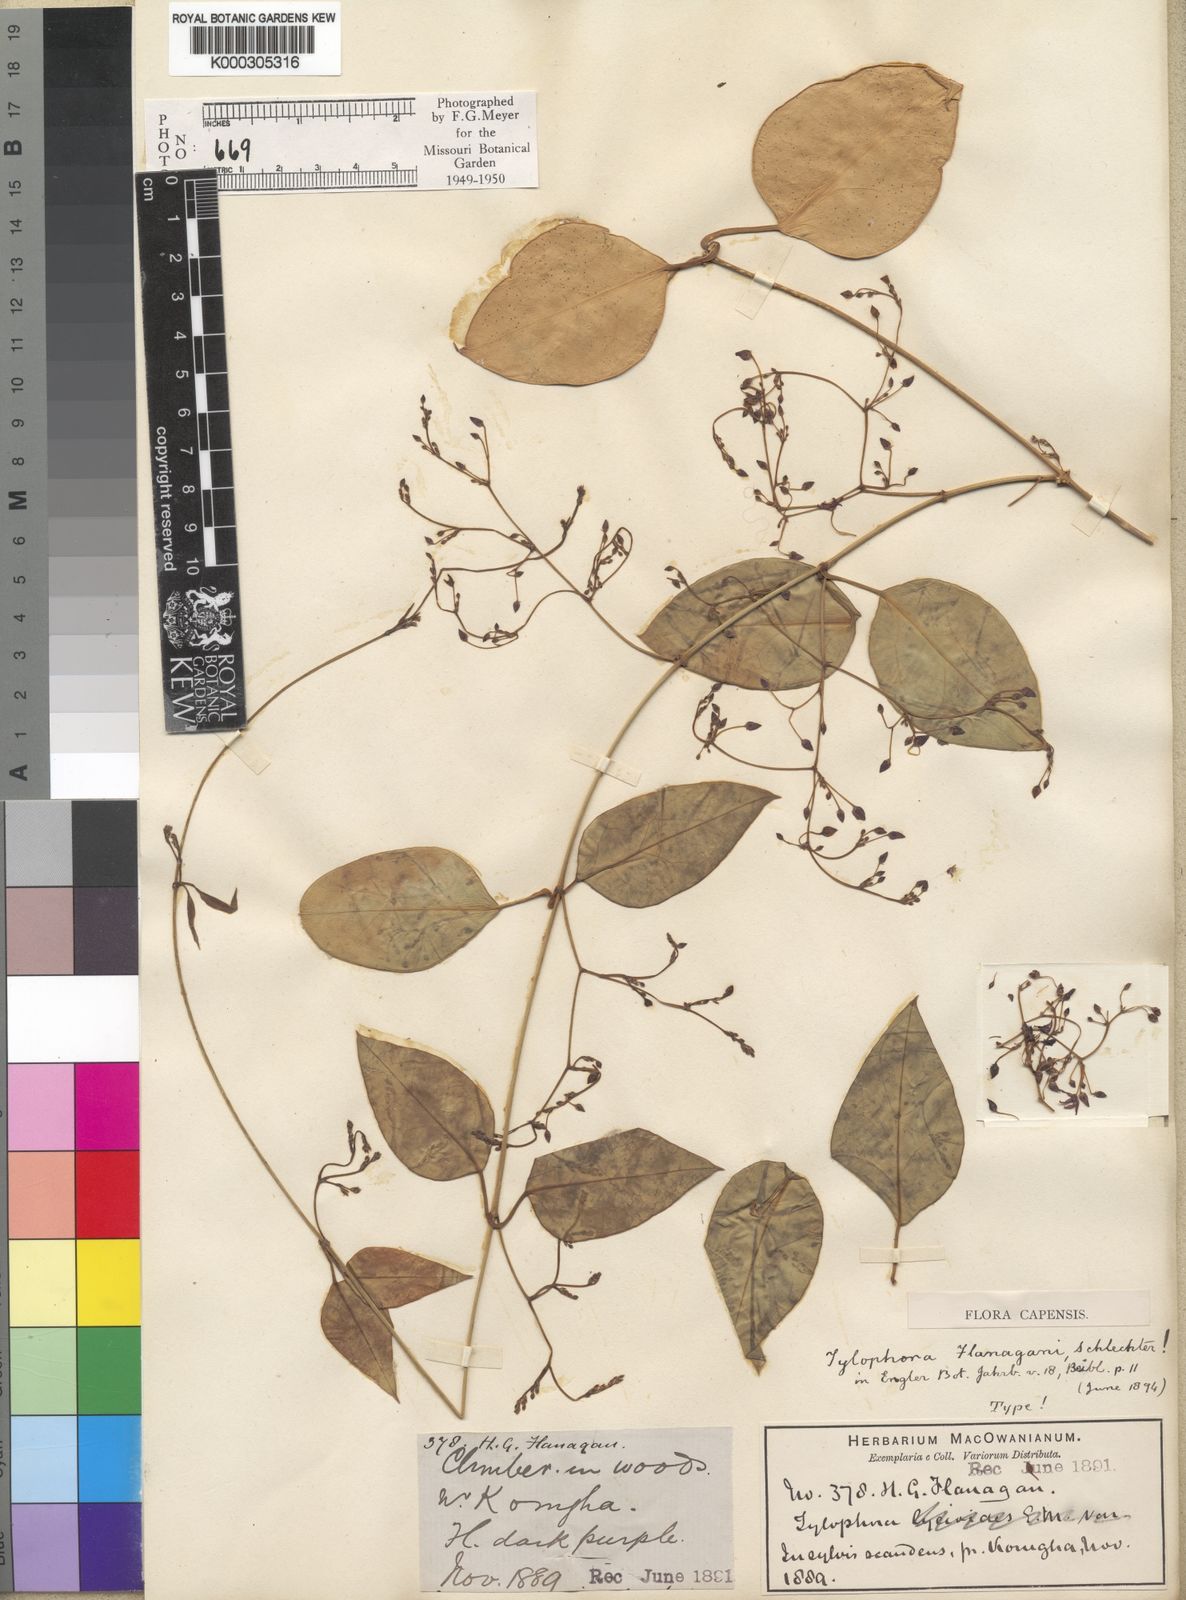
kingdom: Plantae
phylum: Tracheophyta
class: Magnoliopsida
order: Gentianales
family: Apocynaceae
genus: Vincetoxicum
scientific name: Vincetoxicum flanaganii
